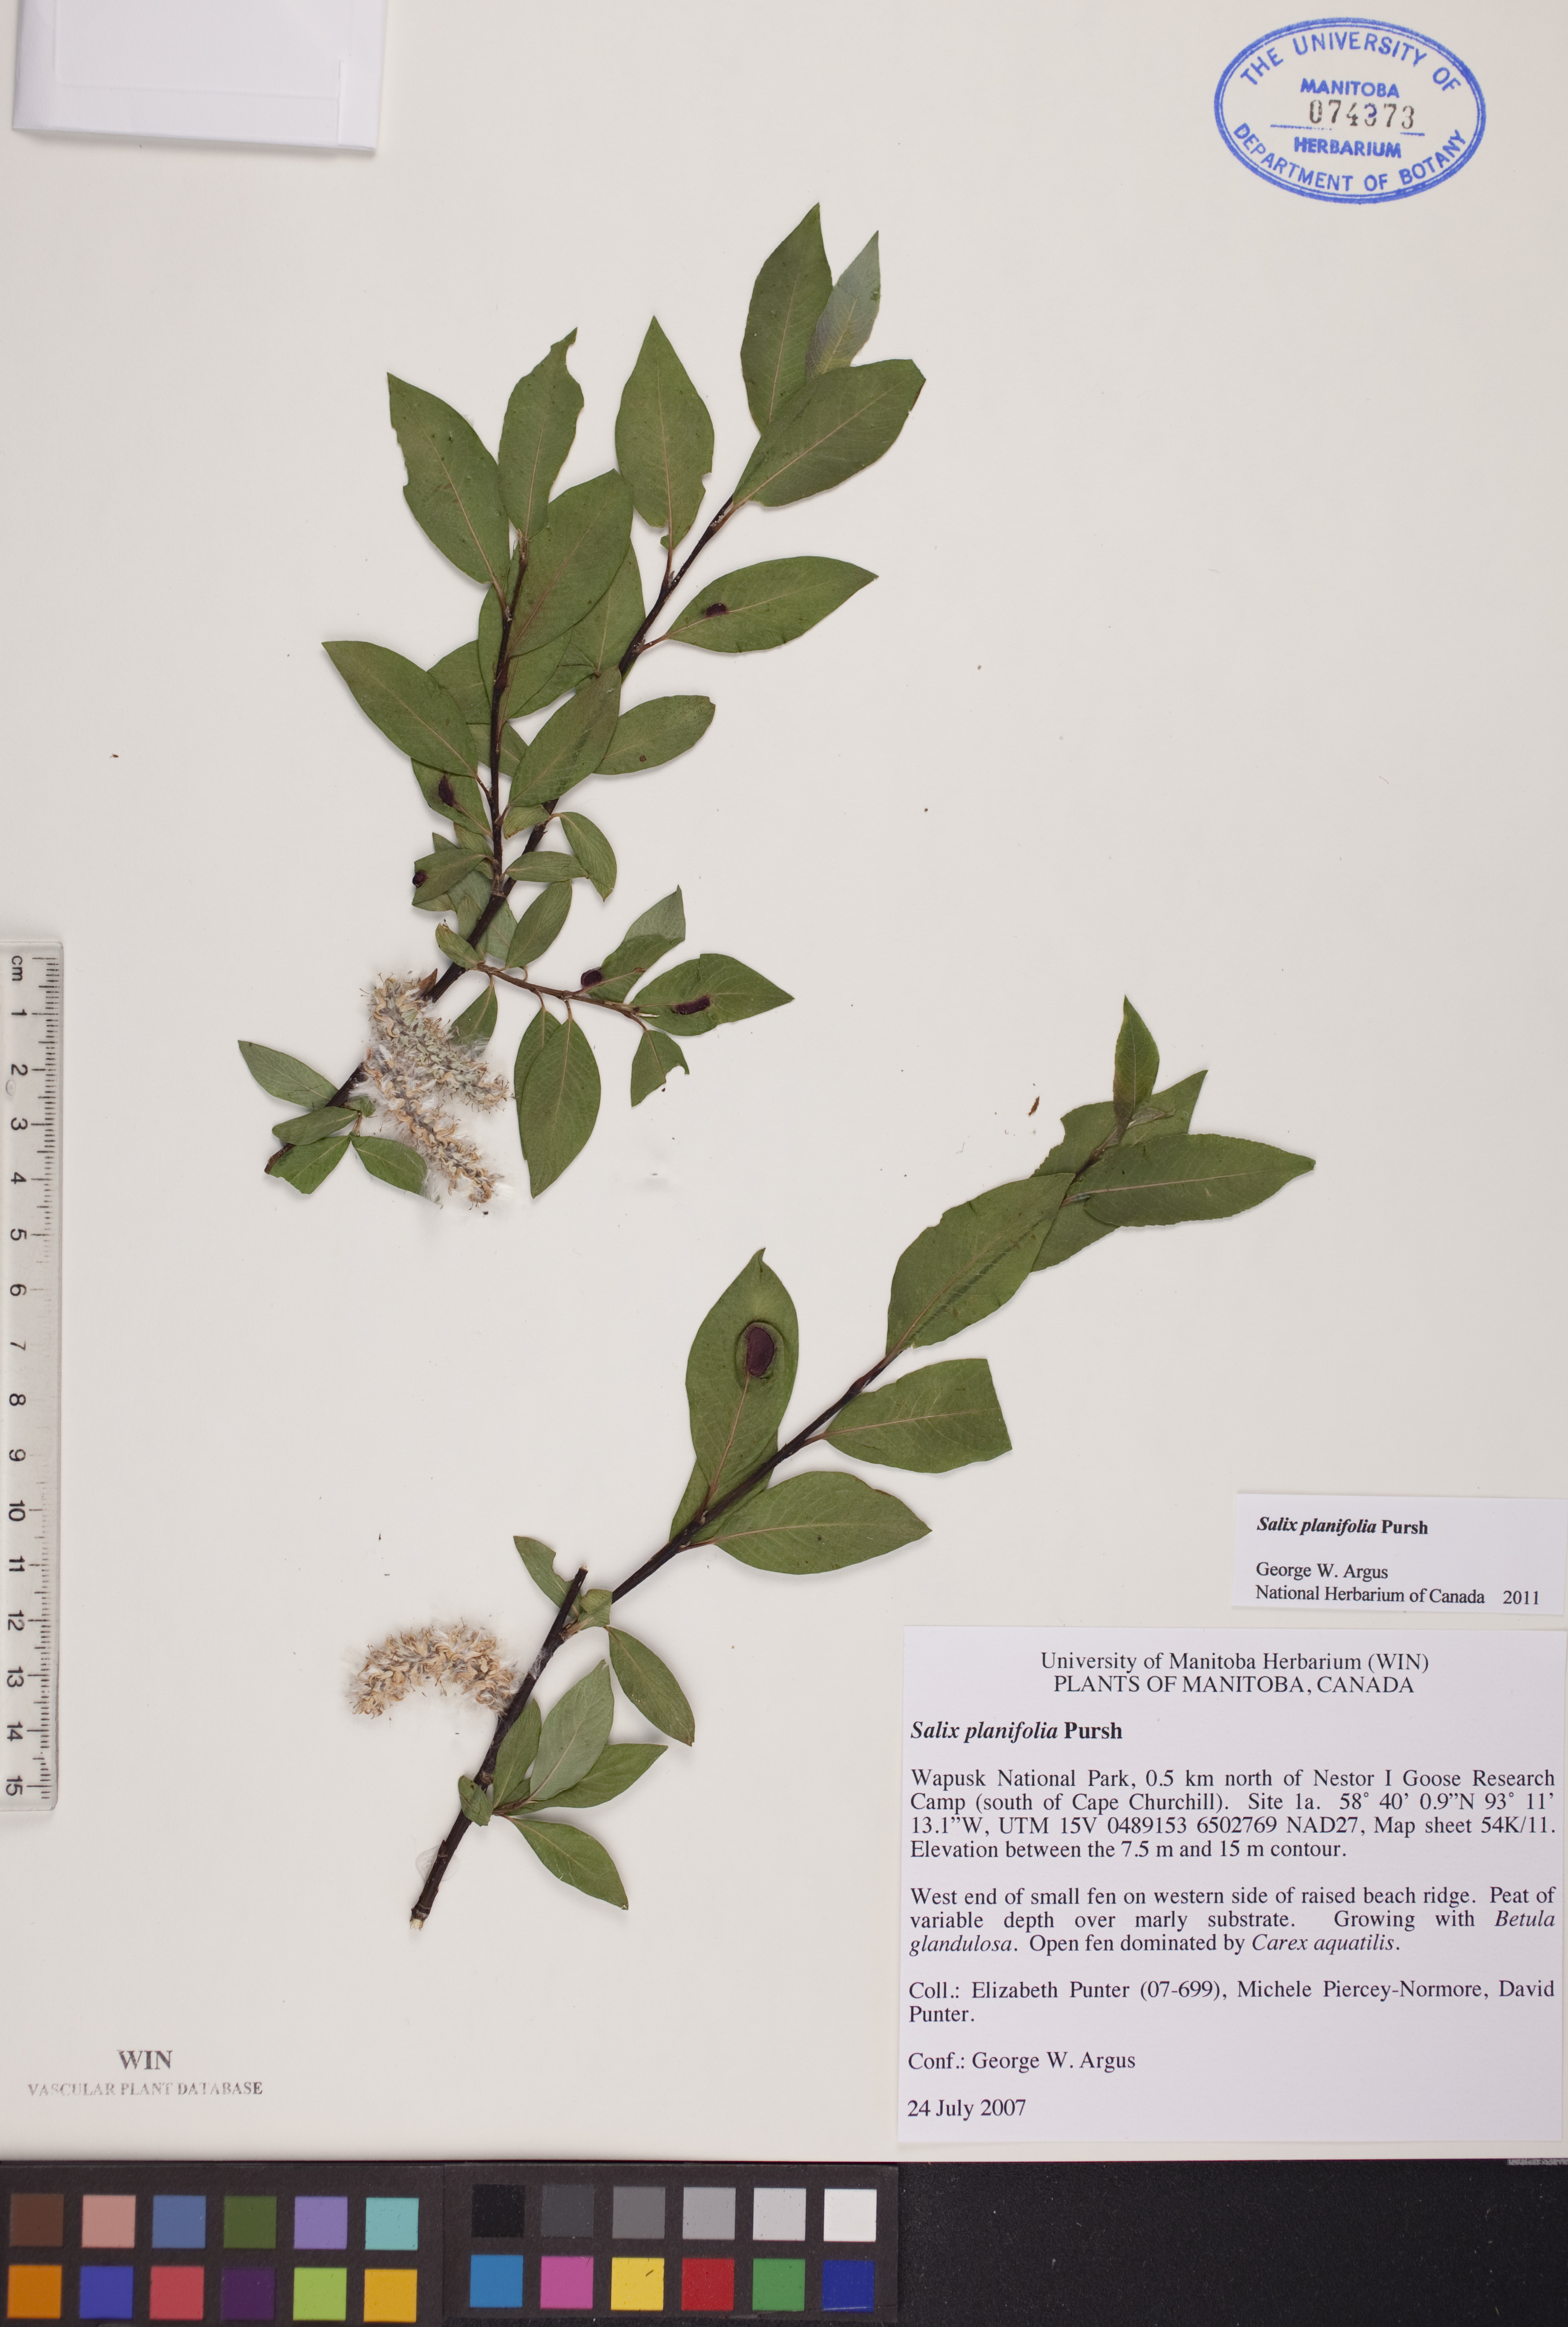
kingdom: Plantae
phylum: Tracheophyta
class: Magnoliopsida
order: Malpighiales
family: Salicaceae
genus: Salix
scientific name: Salix planifolia
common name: Mountain willow
